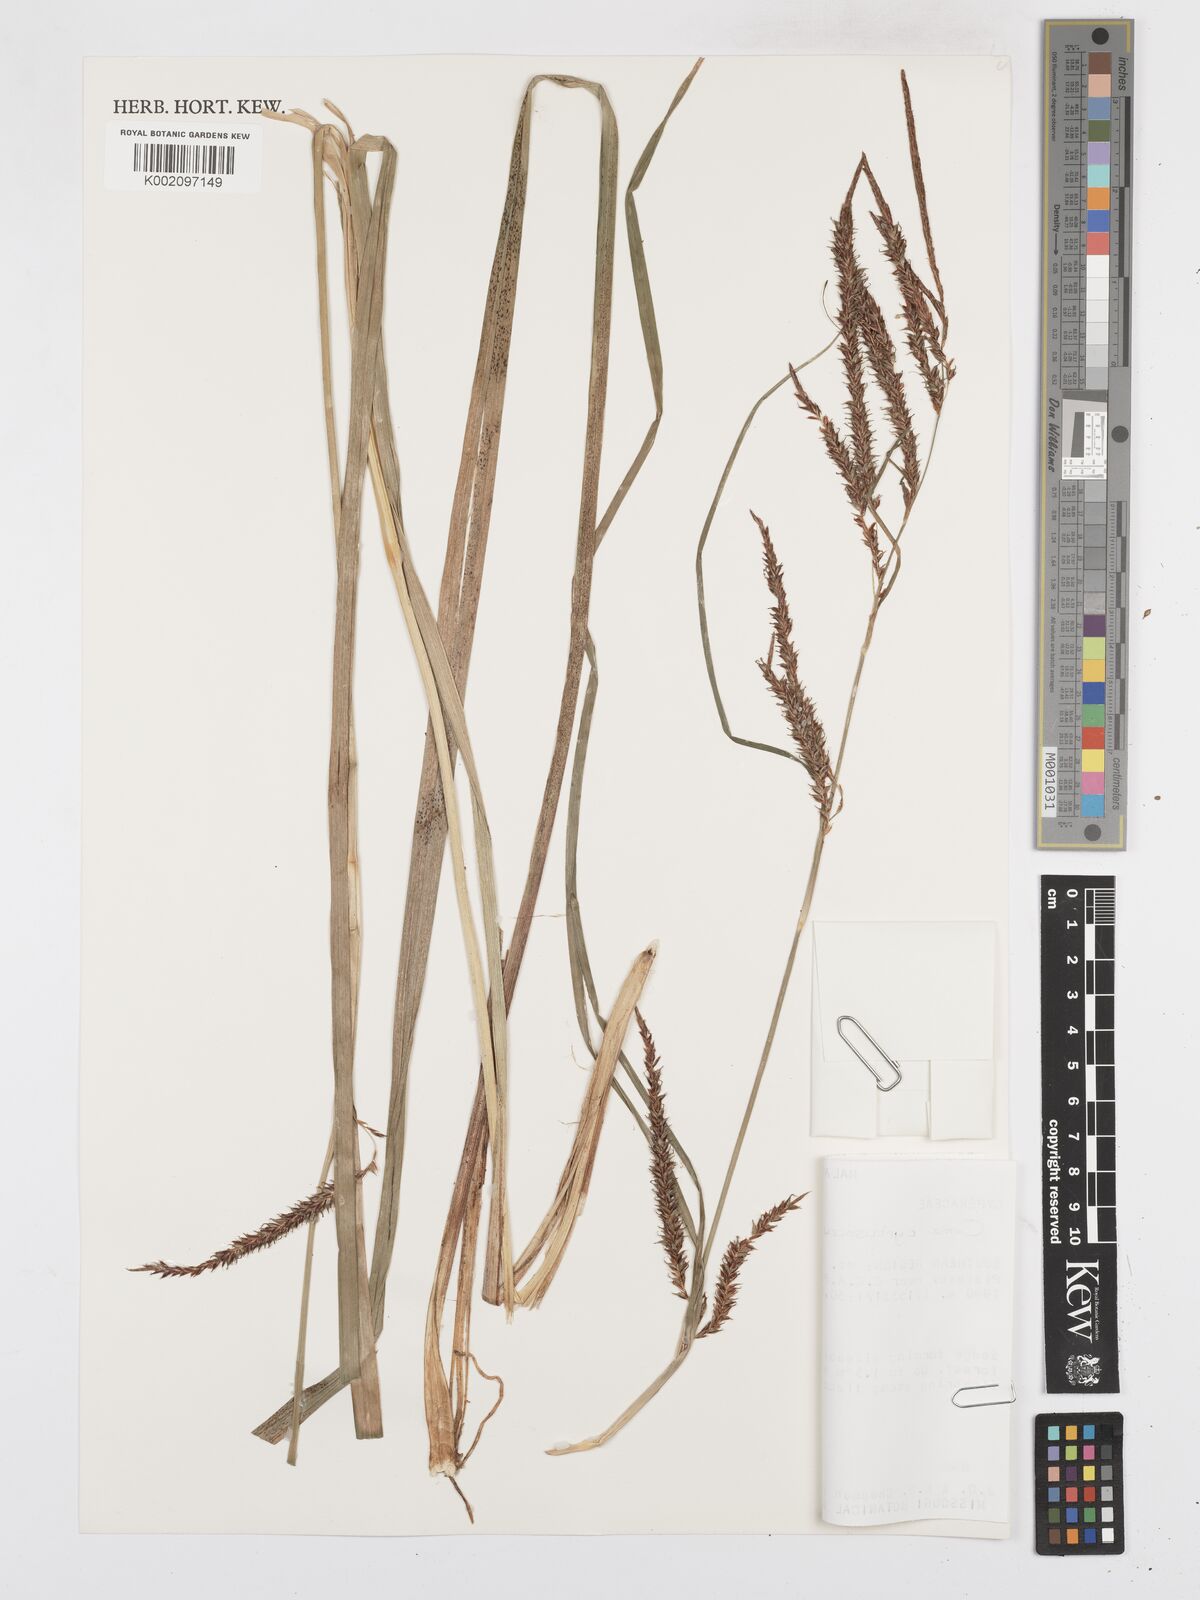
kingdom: Plantae
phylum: Tracheophyta
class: Liliopsida
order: Poales
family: Cyperaceae
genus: Carex
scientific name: Carex vallis-rosetto
